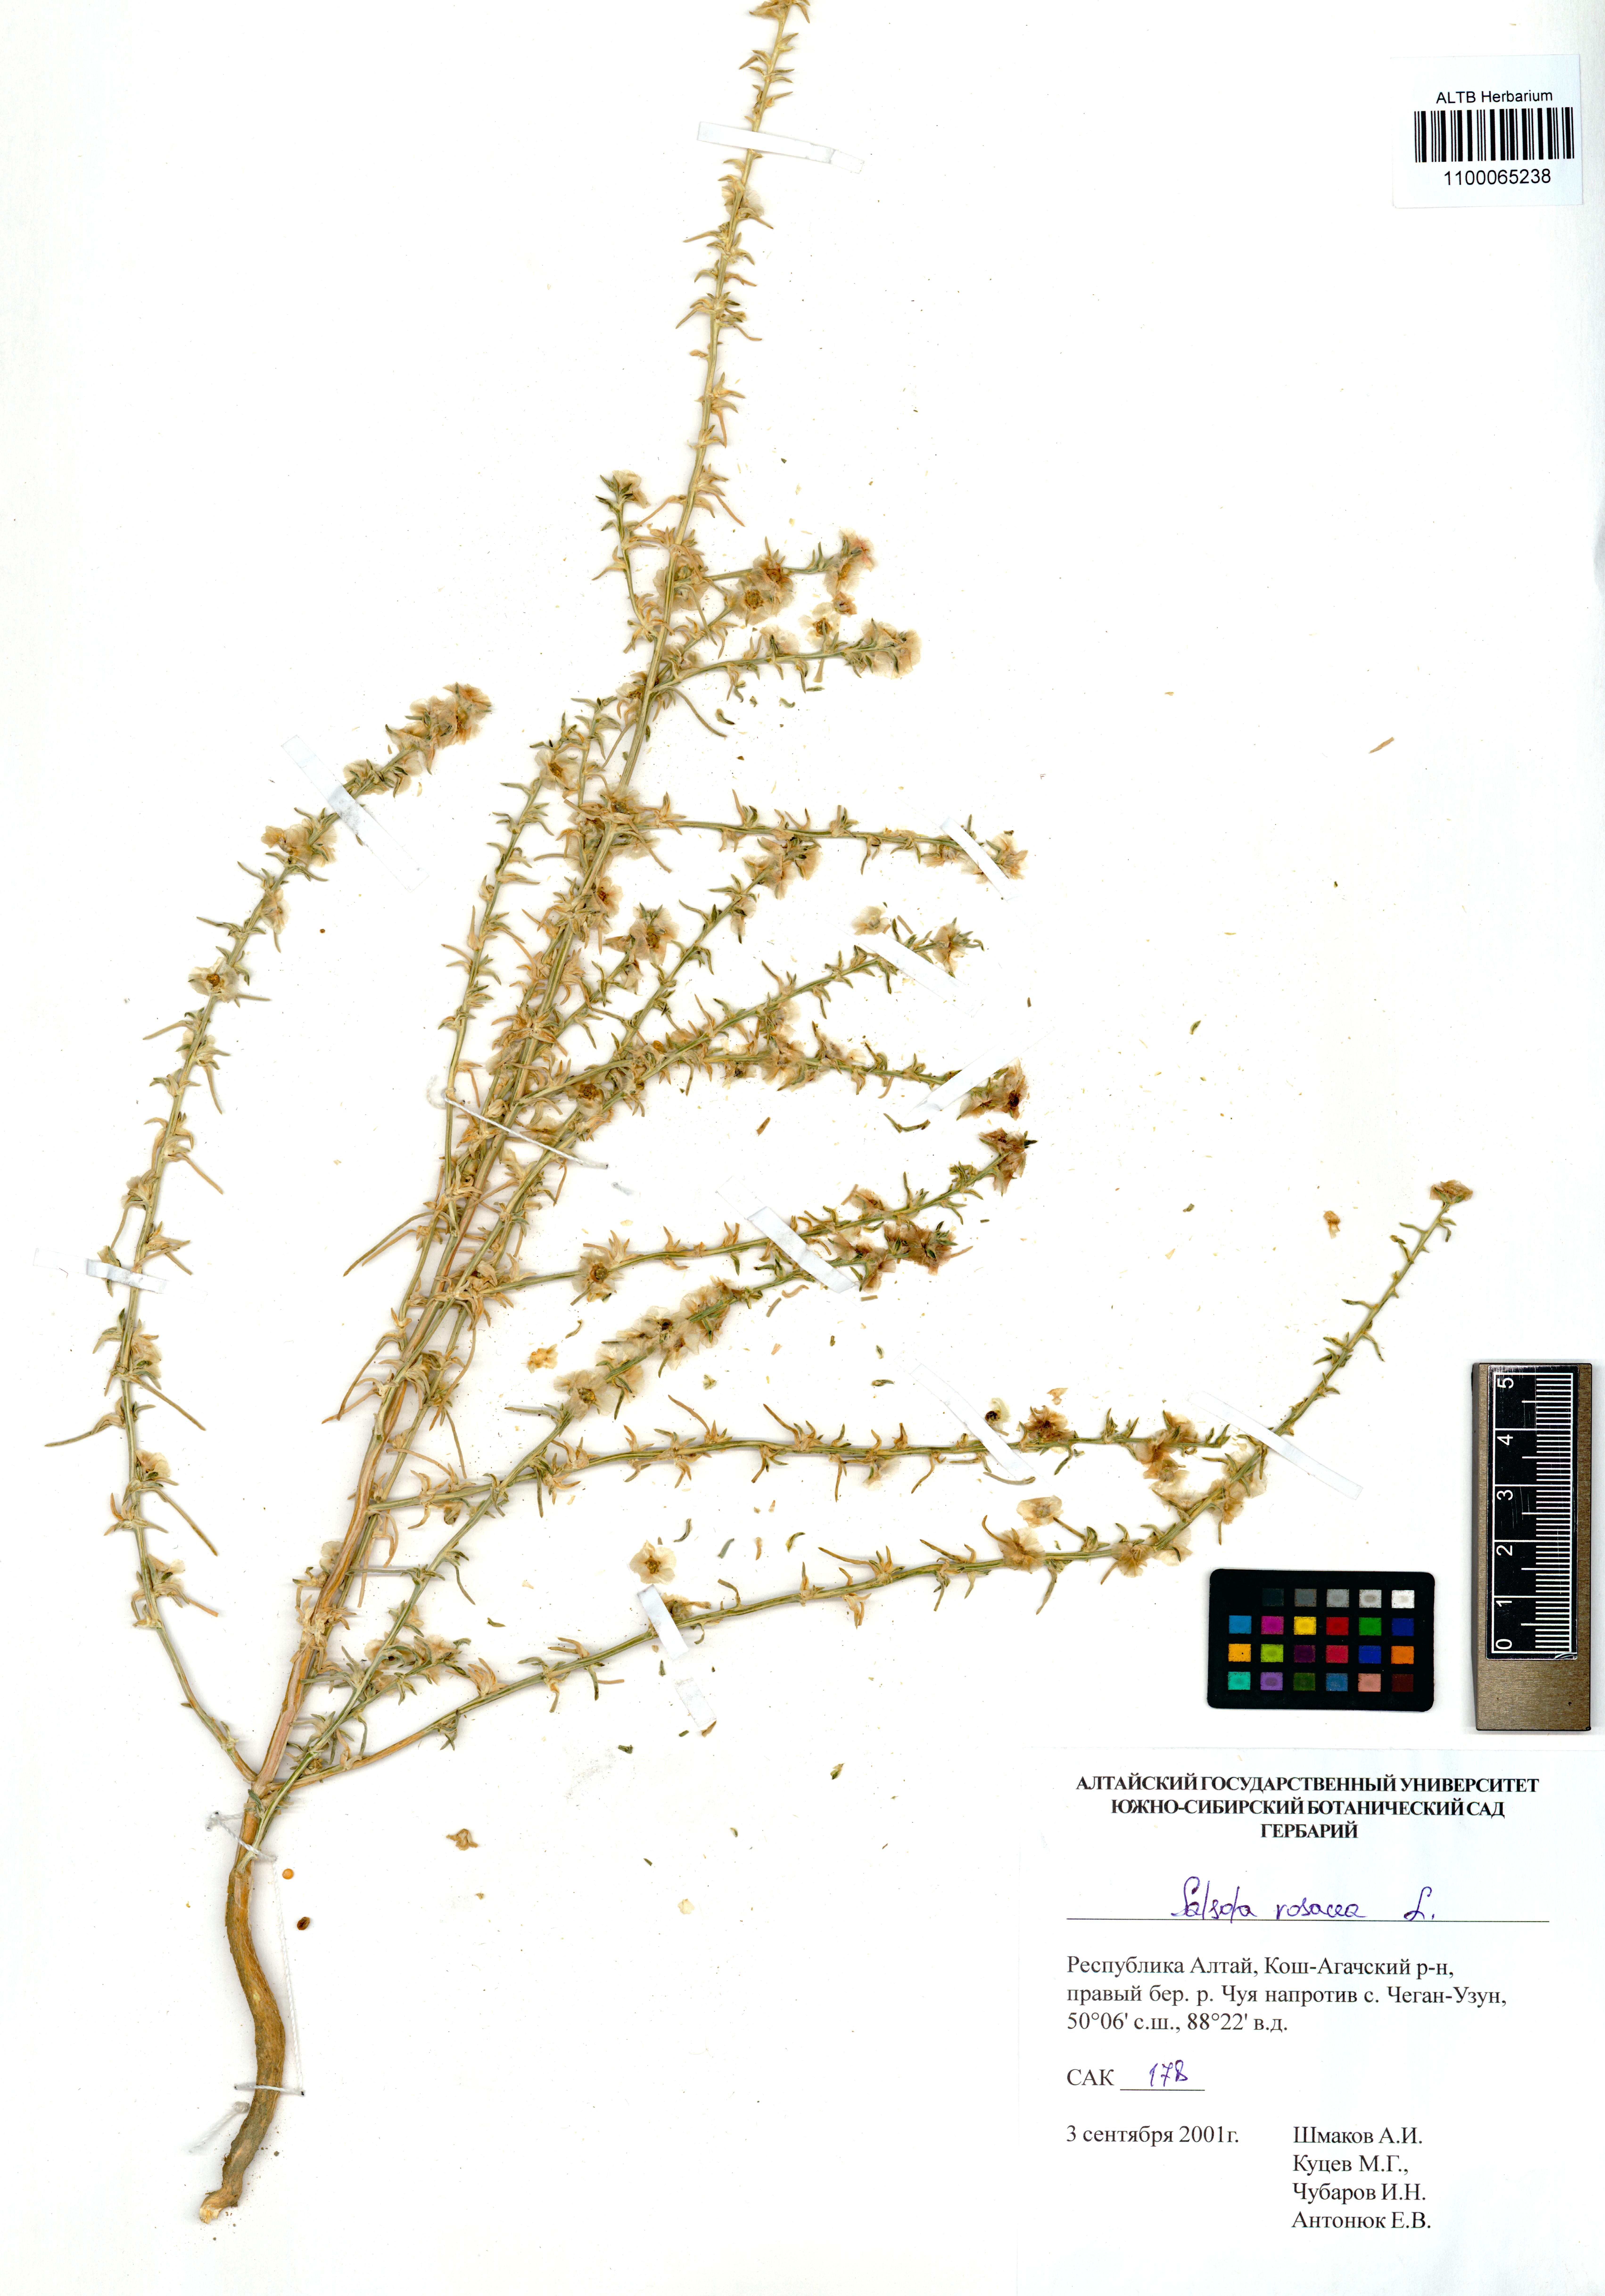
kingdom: Plantae
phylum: Tracheophyta
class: Magnoliopsida
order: Caryophyllales
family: Amaranthaceae
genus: Salsola
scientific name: Salsola rosacea
